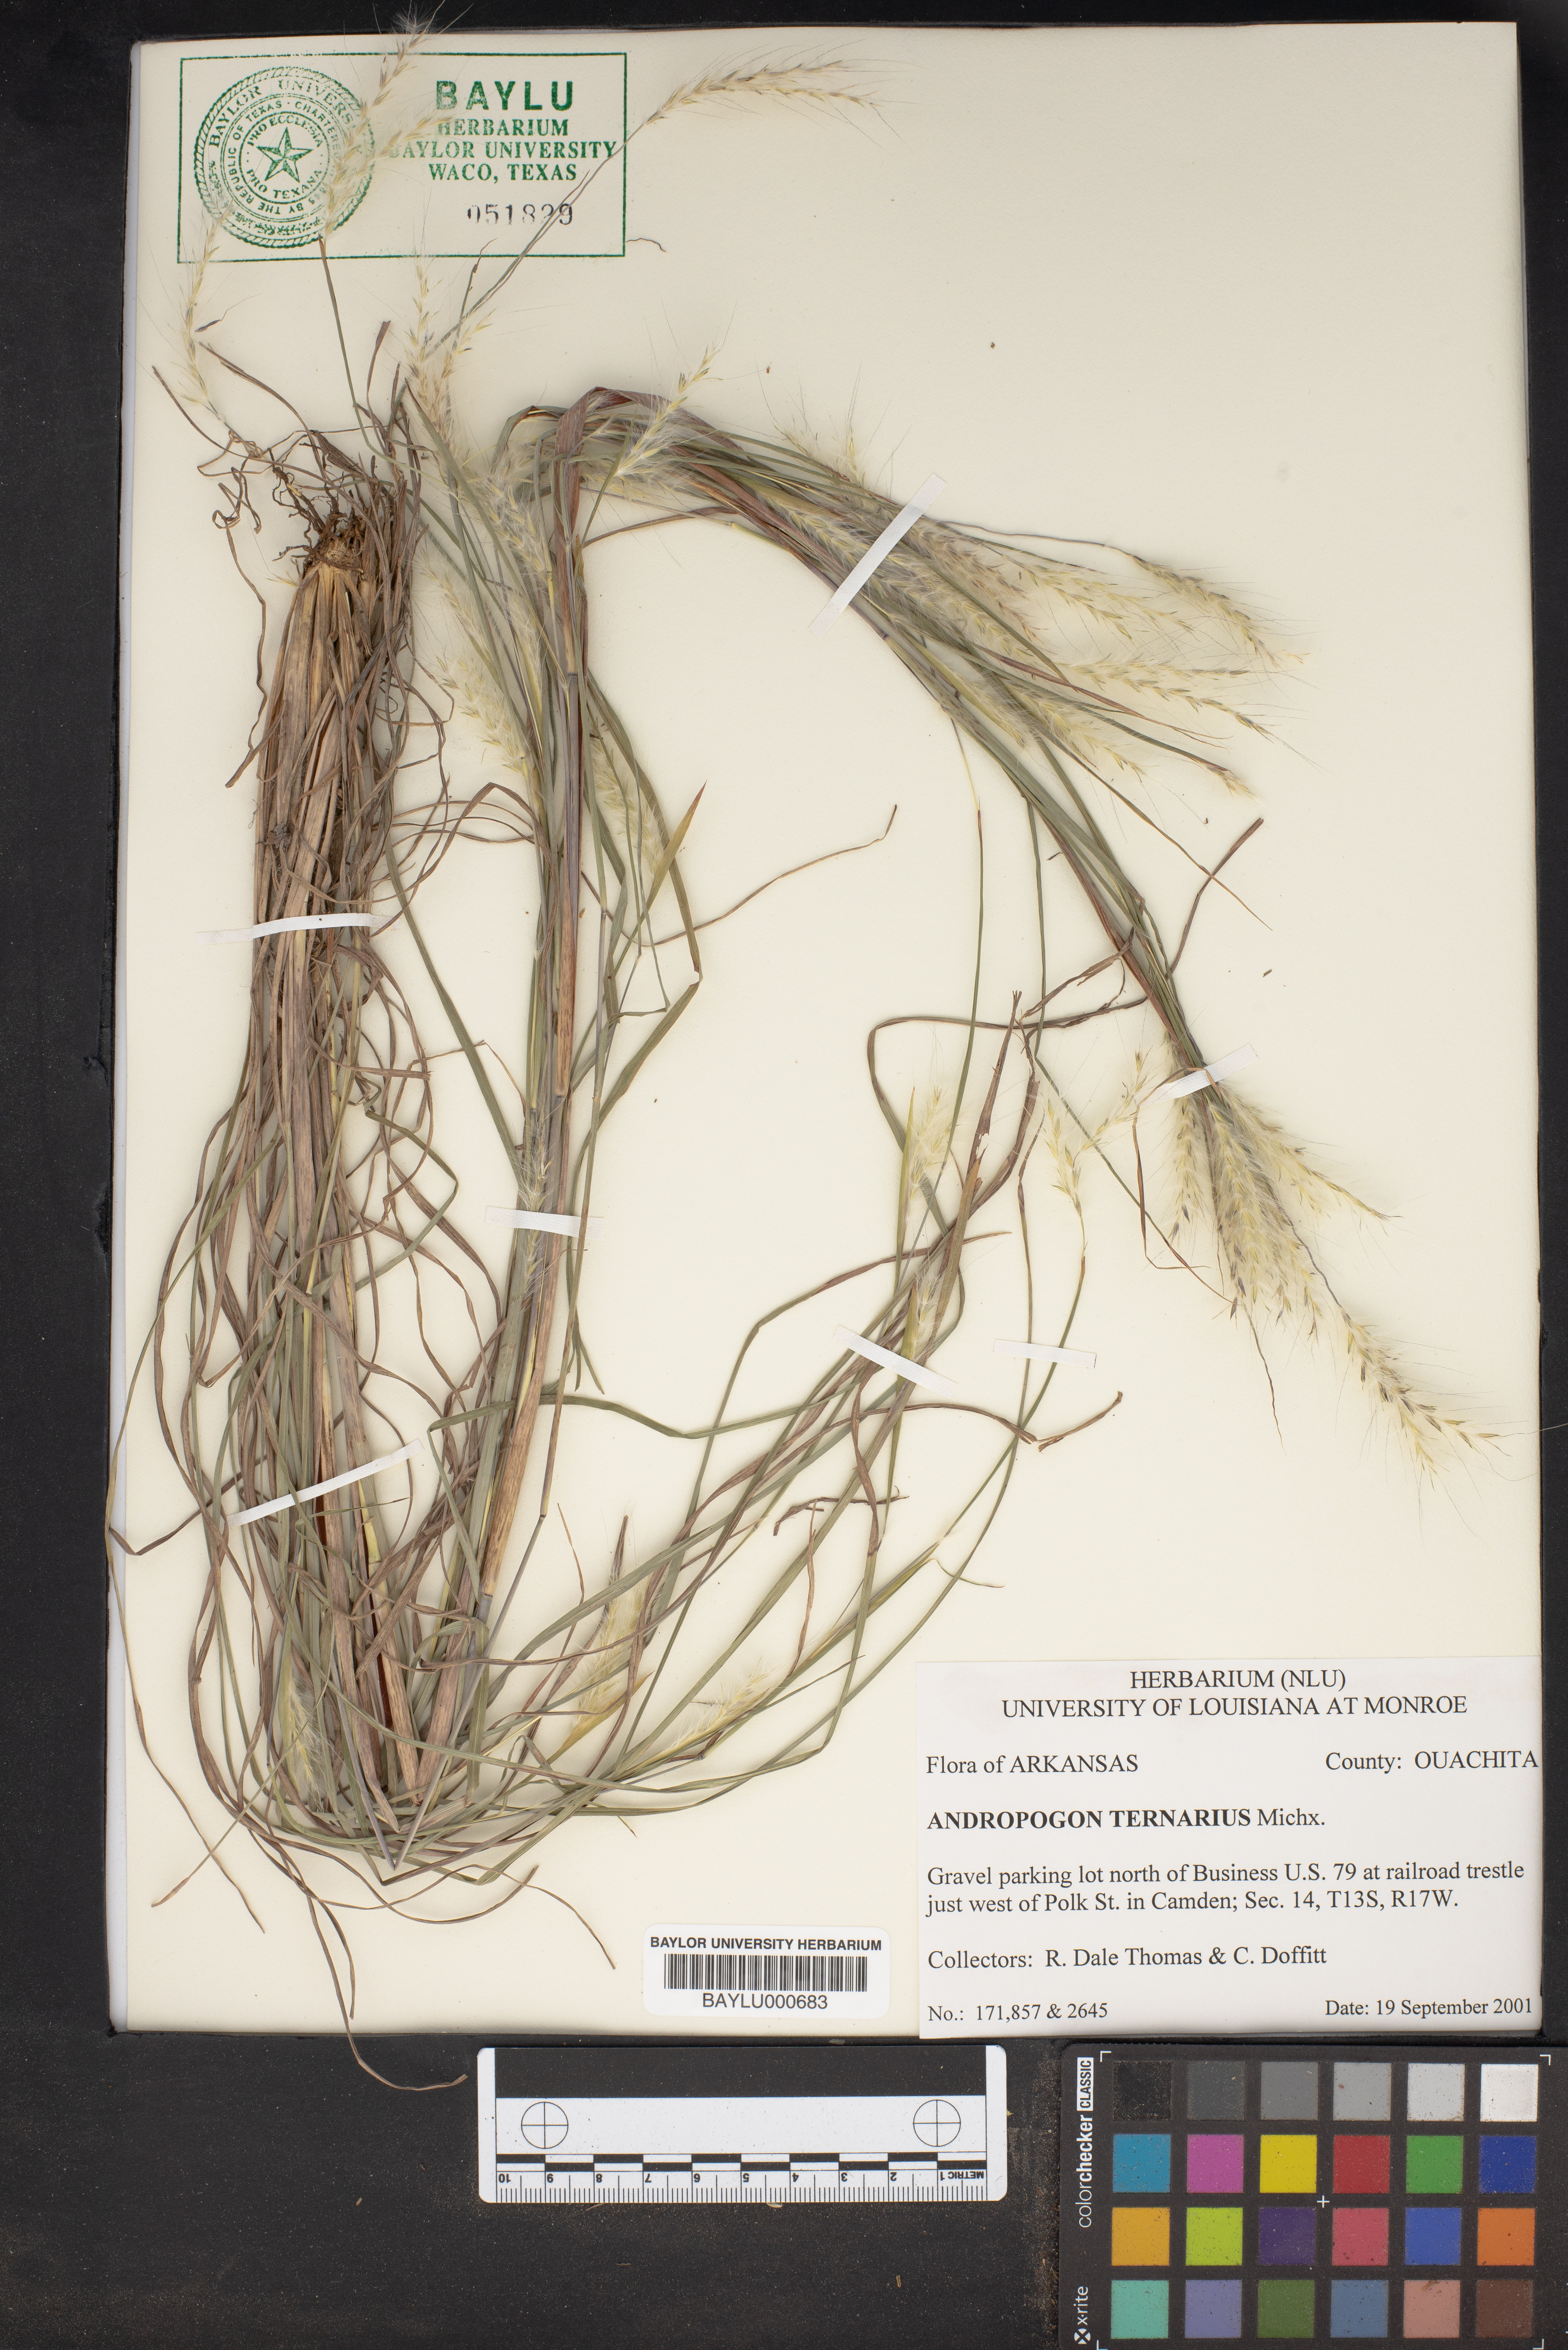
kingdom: Plantae
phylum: Tracheophyta
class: Liliopsida
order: Poales
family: Poaceae
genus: Andropogon
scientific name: Andropogon ternarius
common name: Split bluestem
